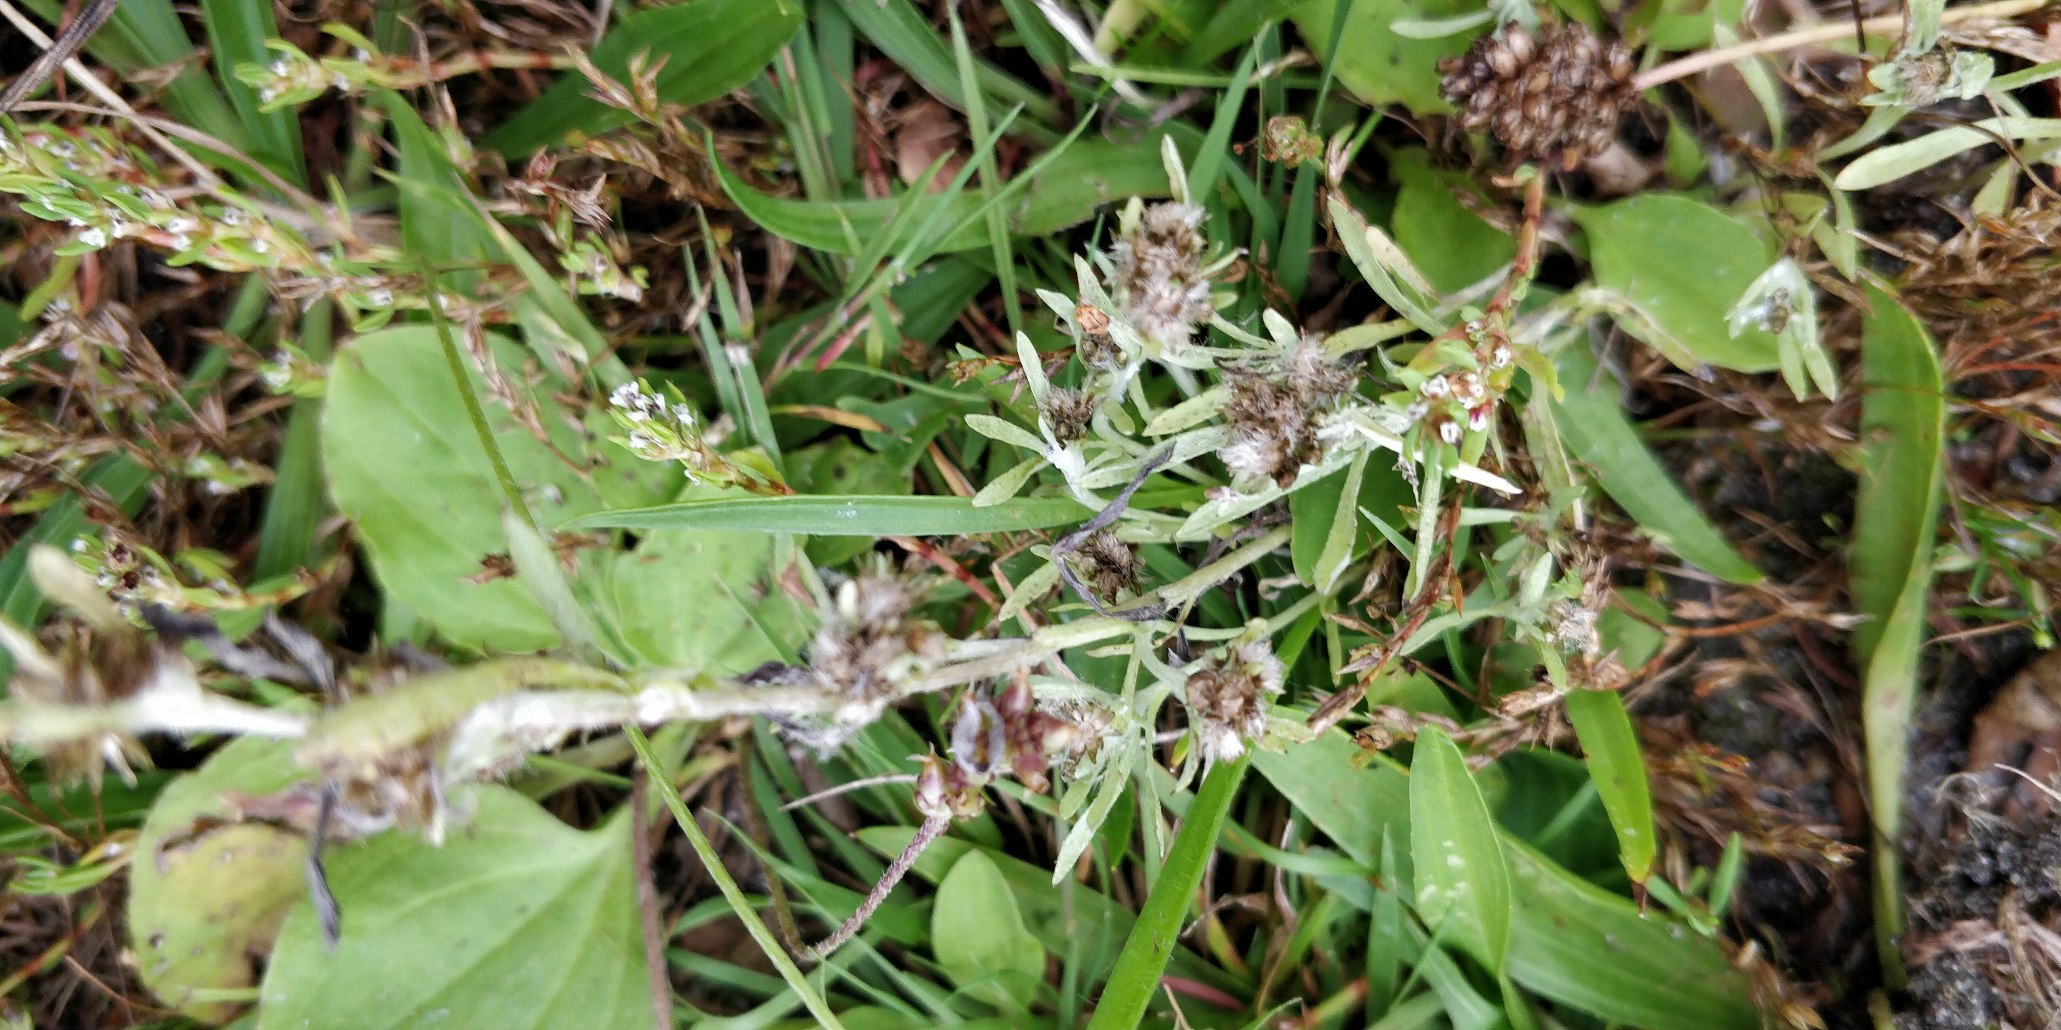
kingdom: Plantae
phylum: Tracheophyta
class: Magnoliopsida
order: Asterales
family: Asteraceae
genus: Gnaphalium
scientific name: Gnaphalium uliginosum
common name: Sump-evighedsblomst
